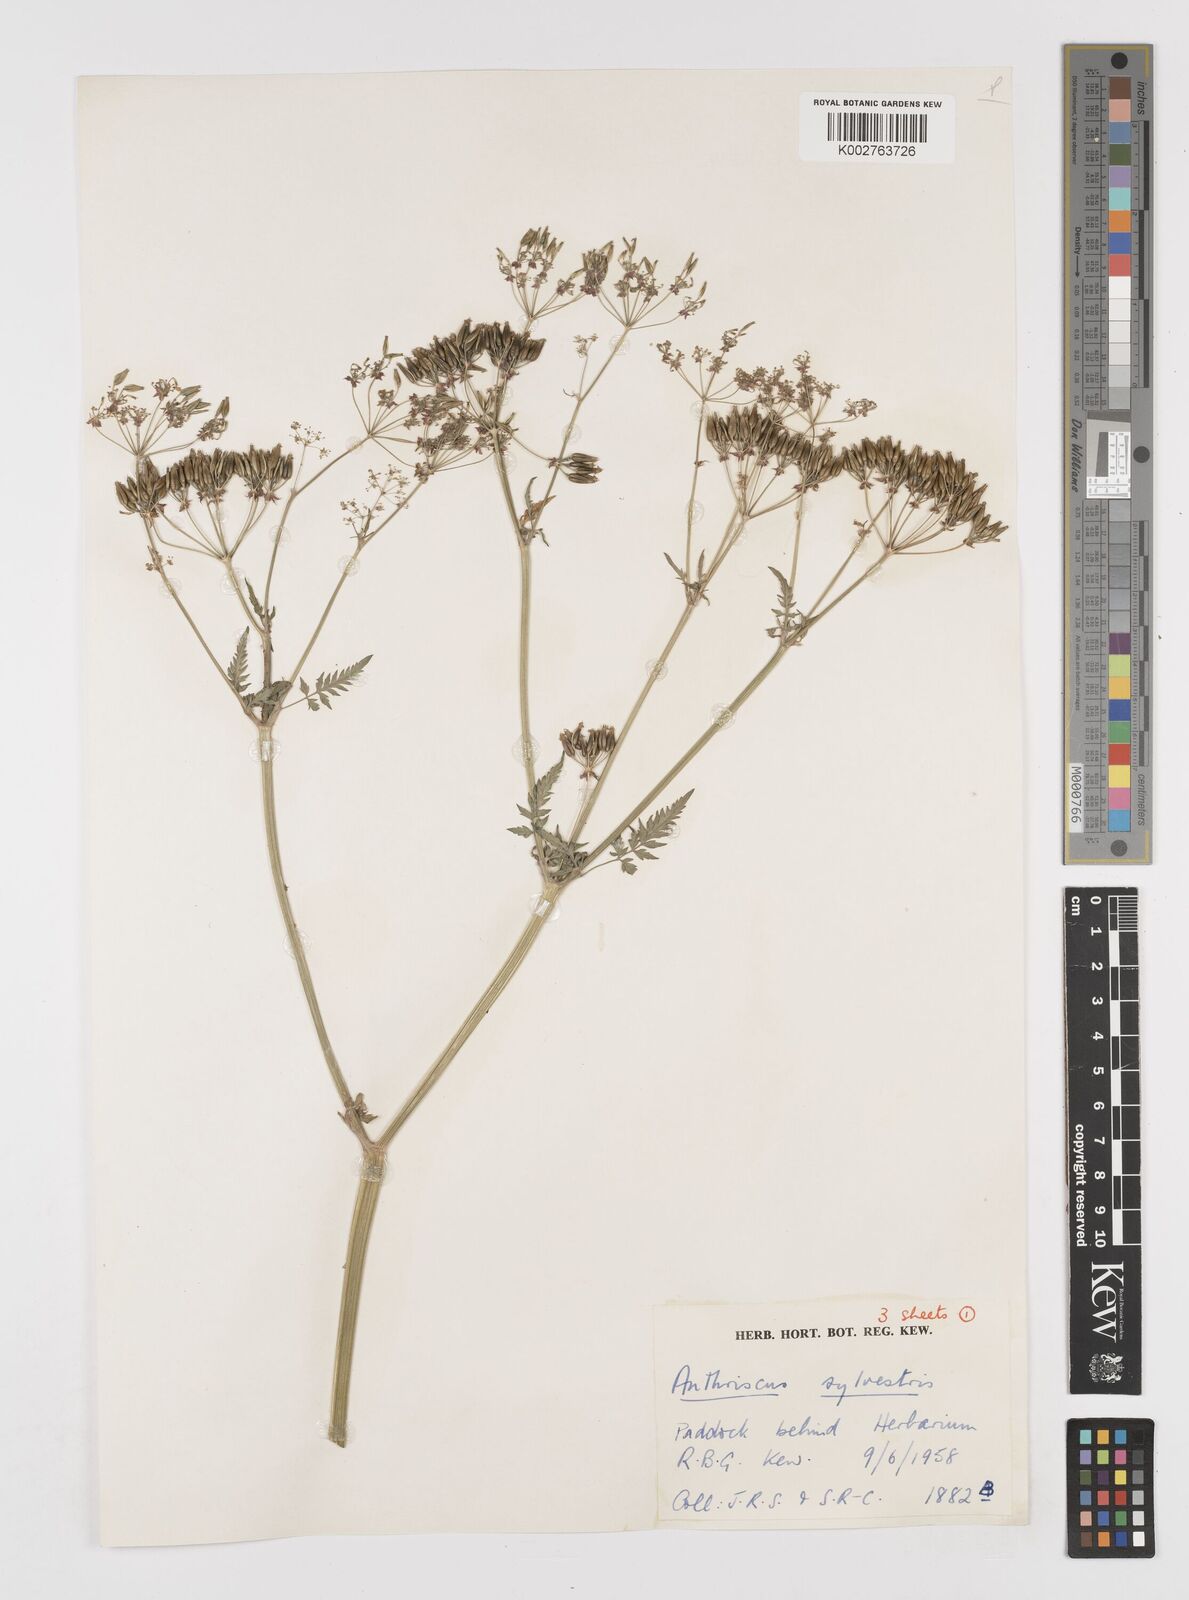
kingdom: Plantae
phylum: Tracheophyta
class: Magnoliopsida
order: Apiales
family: Apiaceae
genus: Anthriscus
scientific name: Anthriscus sylvestris
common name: Cow parsley
